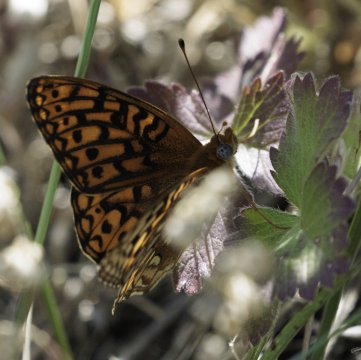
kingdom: Animalia
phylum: Arthropoda
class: Insecta
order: Lepidoptera
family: Nymphalidae
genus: Speyeria
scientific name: Speyeria
